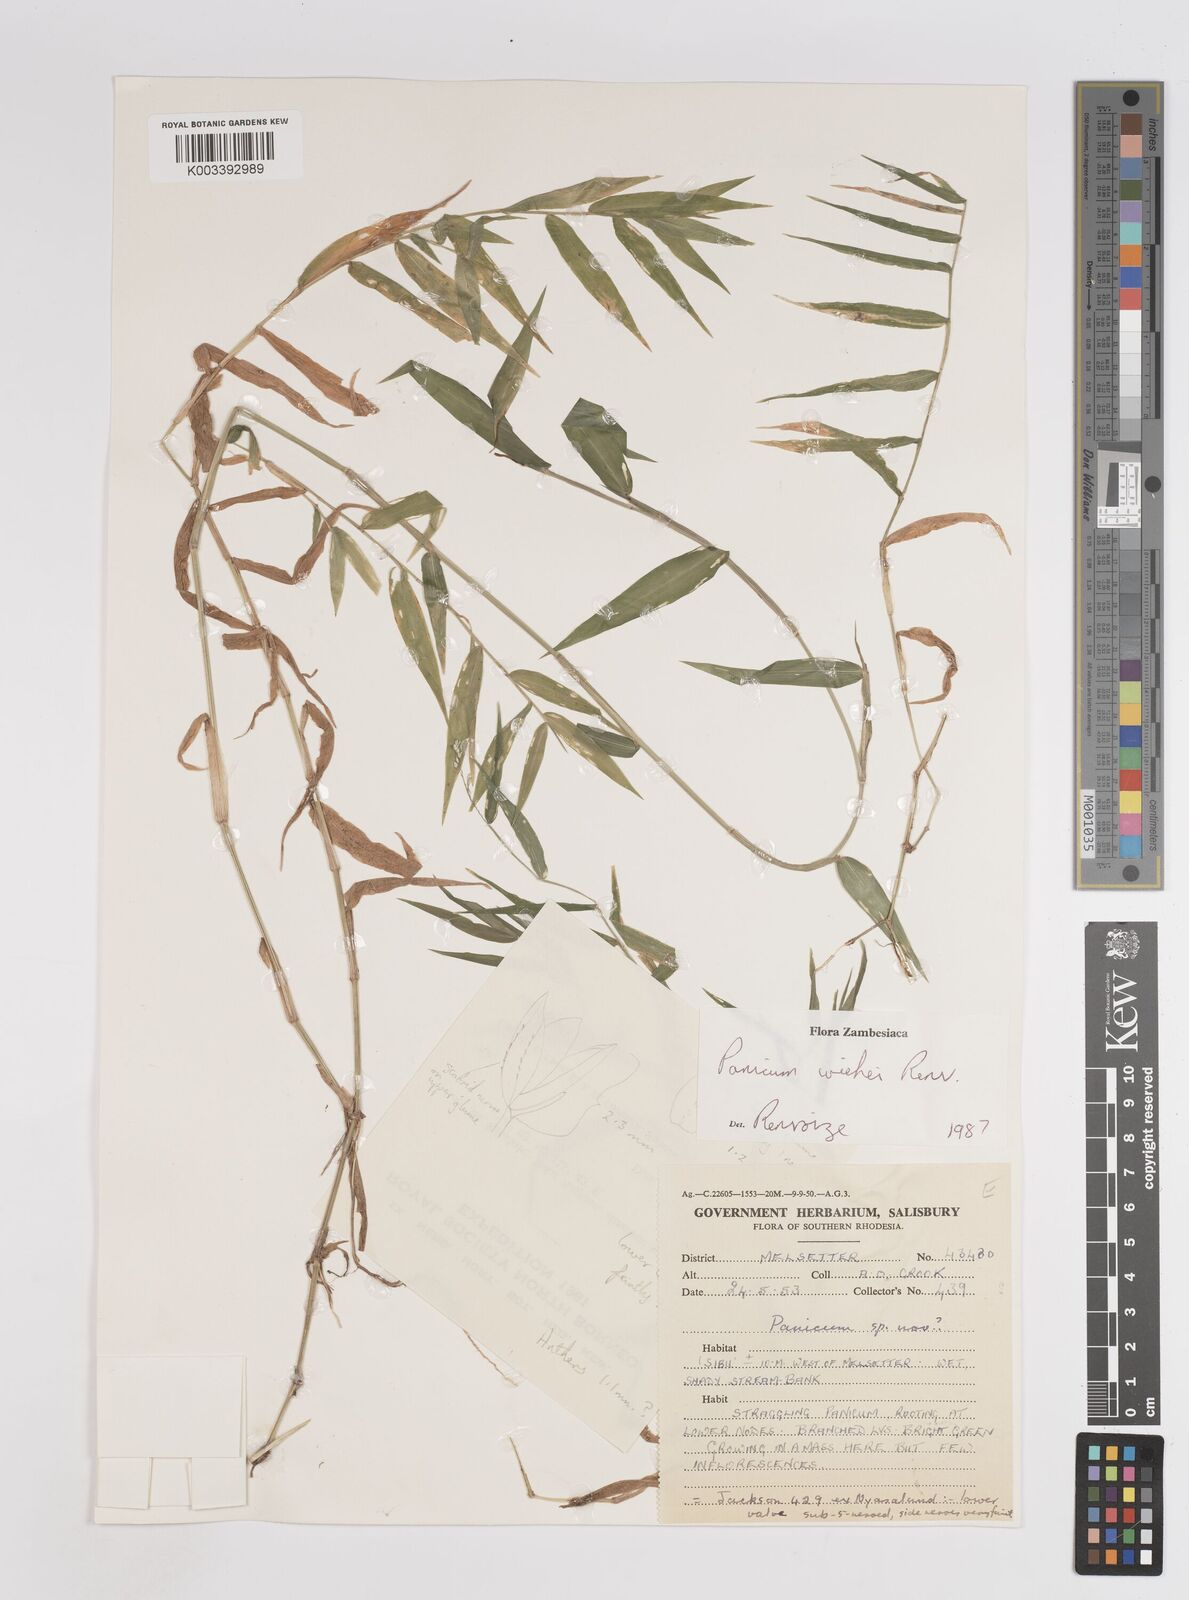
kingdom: Plantae
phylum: Tracheophyta
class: Liliopsida
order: Poales
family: Poaceae
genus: Panicum
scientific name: Panicum wiehei
